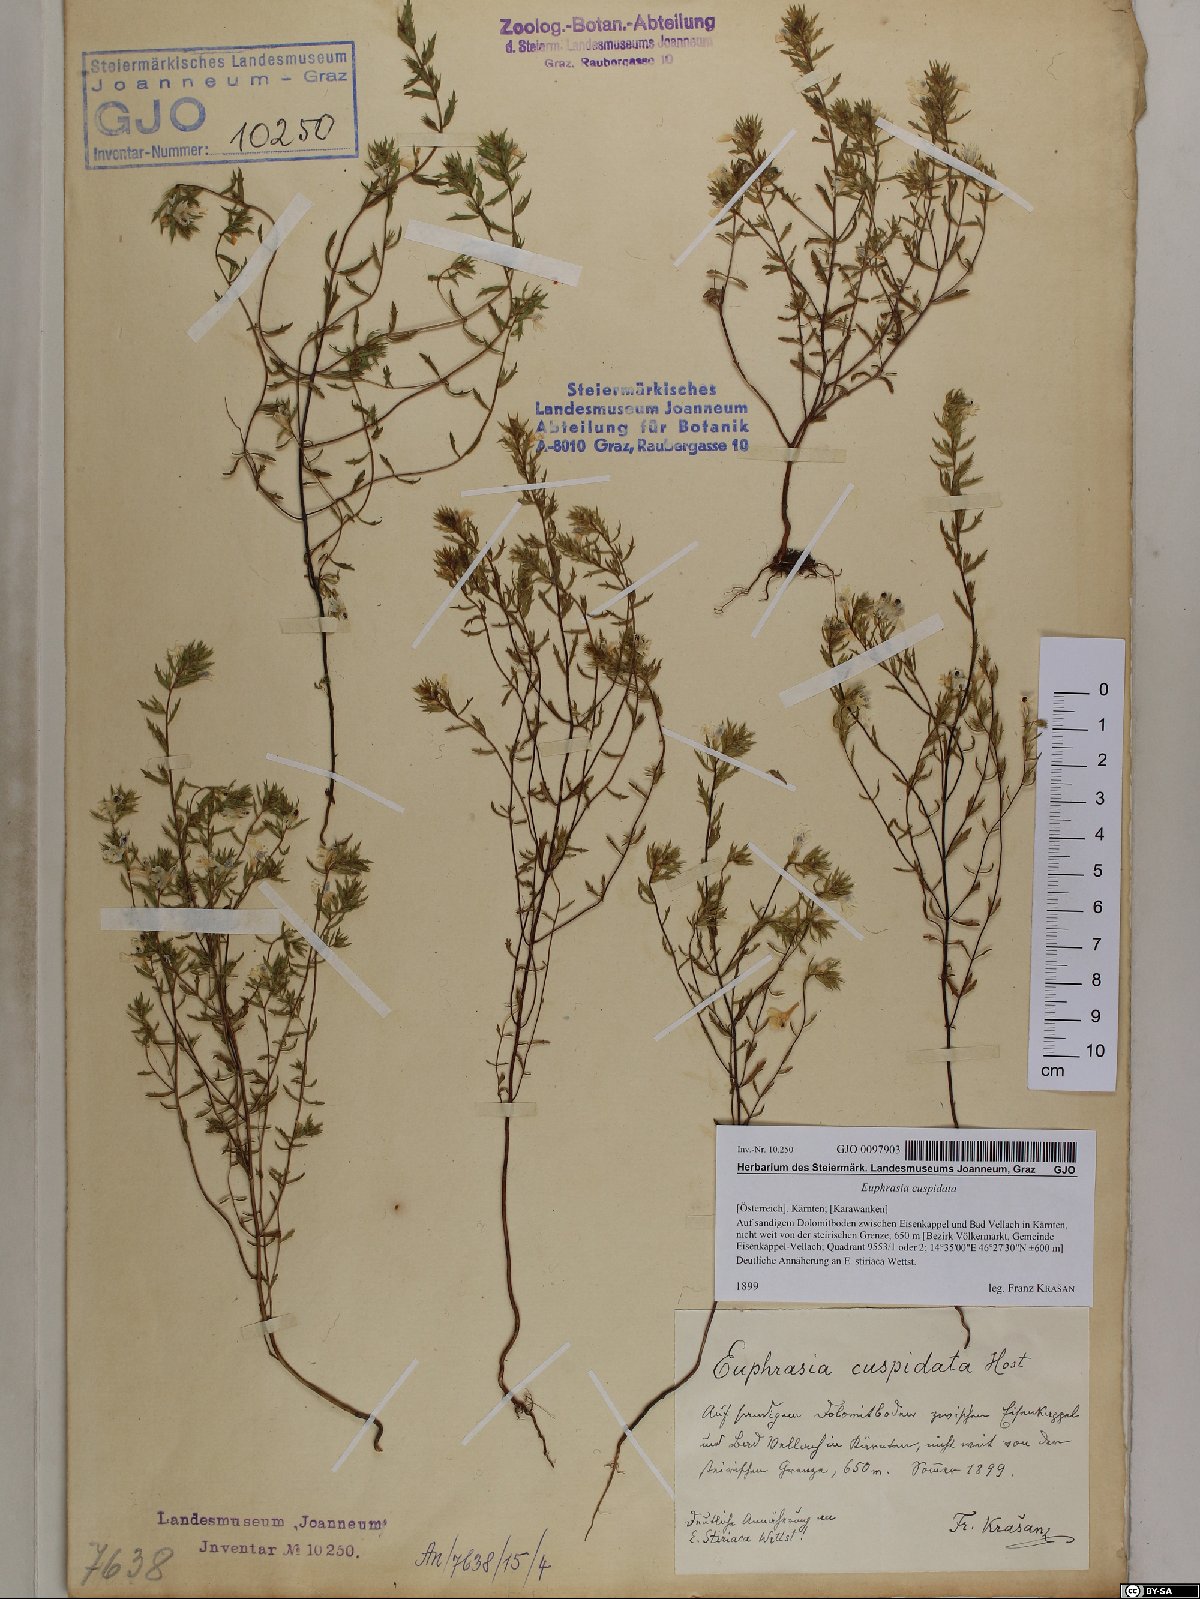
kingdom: Plantae
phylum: Tracheophyta
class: Magnoliopsida
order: Lamiales
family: Orobanchaceae
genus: Euphrasia
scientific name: Euphrasia cuspidata
